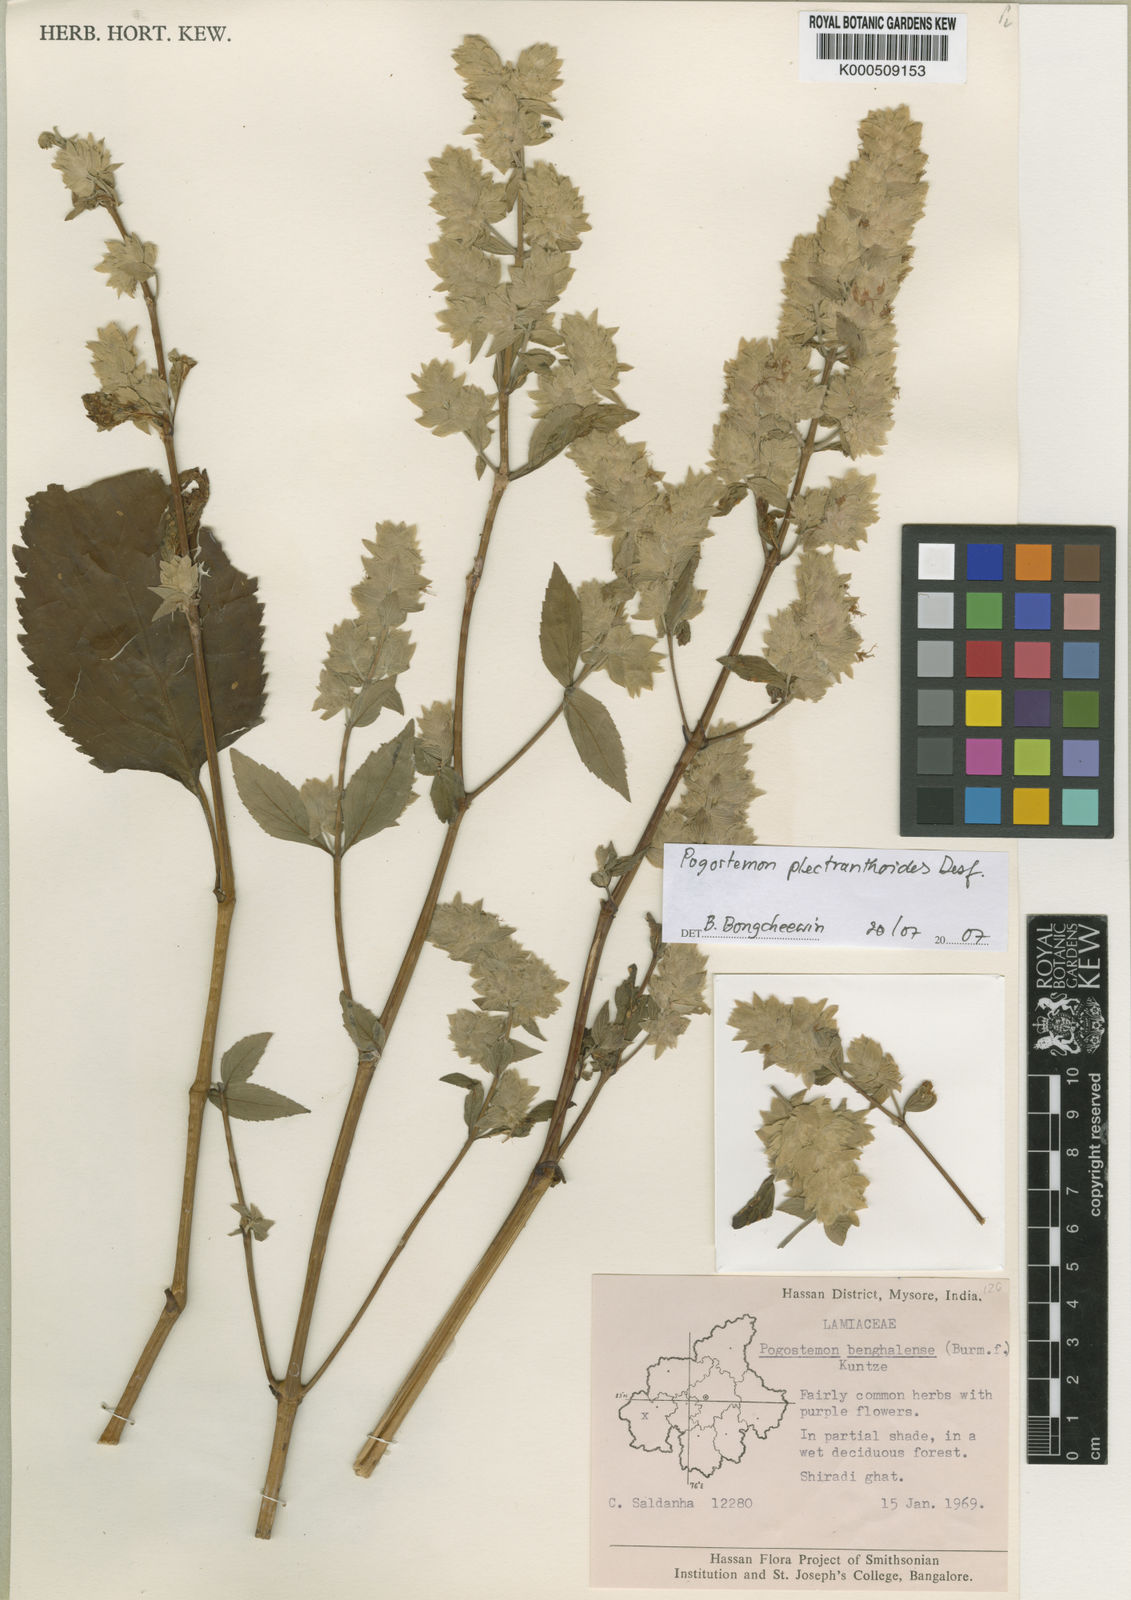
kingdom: Plantae
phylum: Tracheophyta
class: Magnoliopsida
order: Lamiales
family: Lamiaceae
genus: Pogostemon
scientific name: Pogostemon
